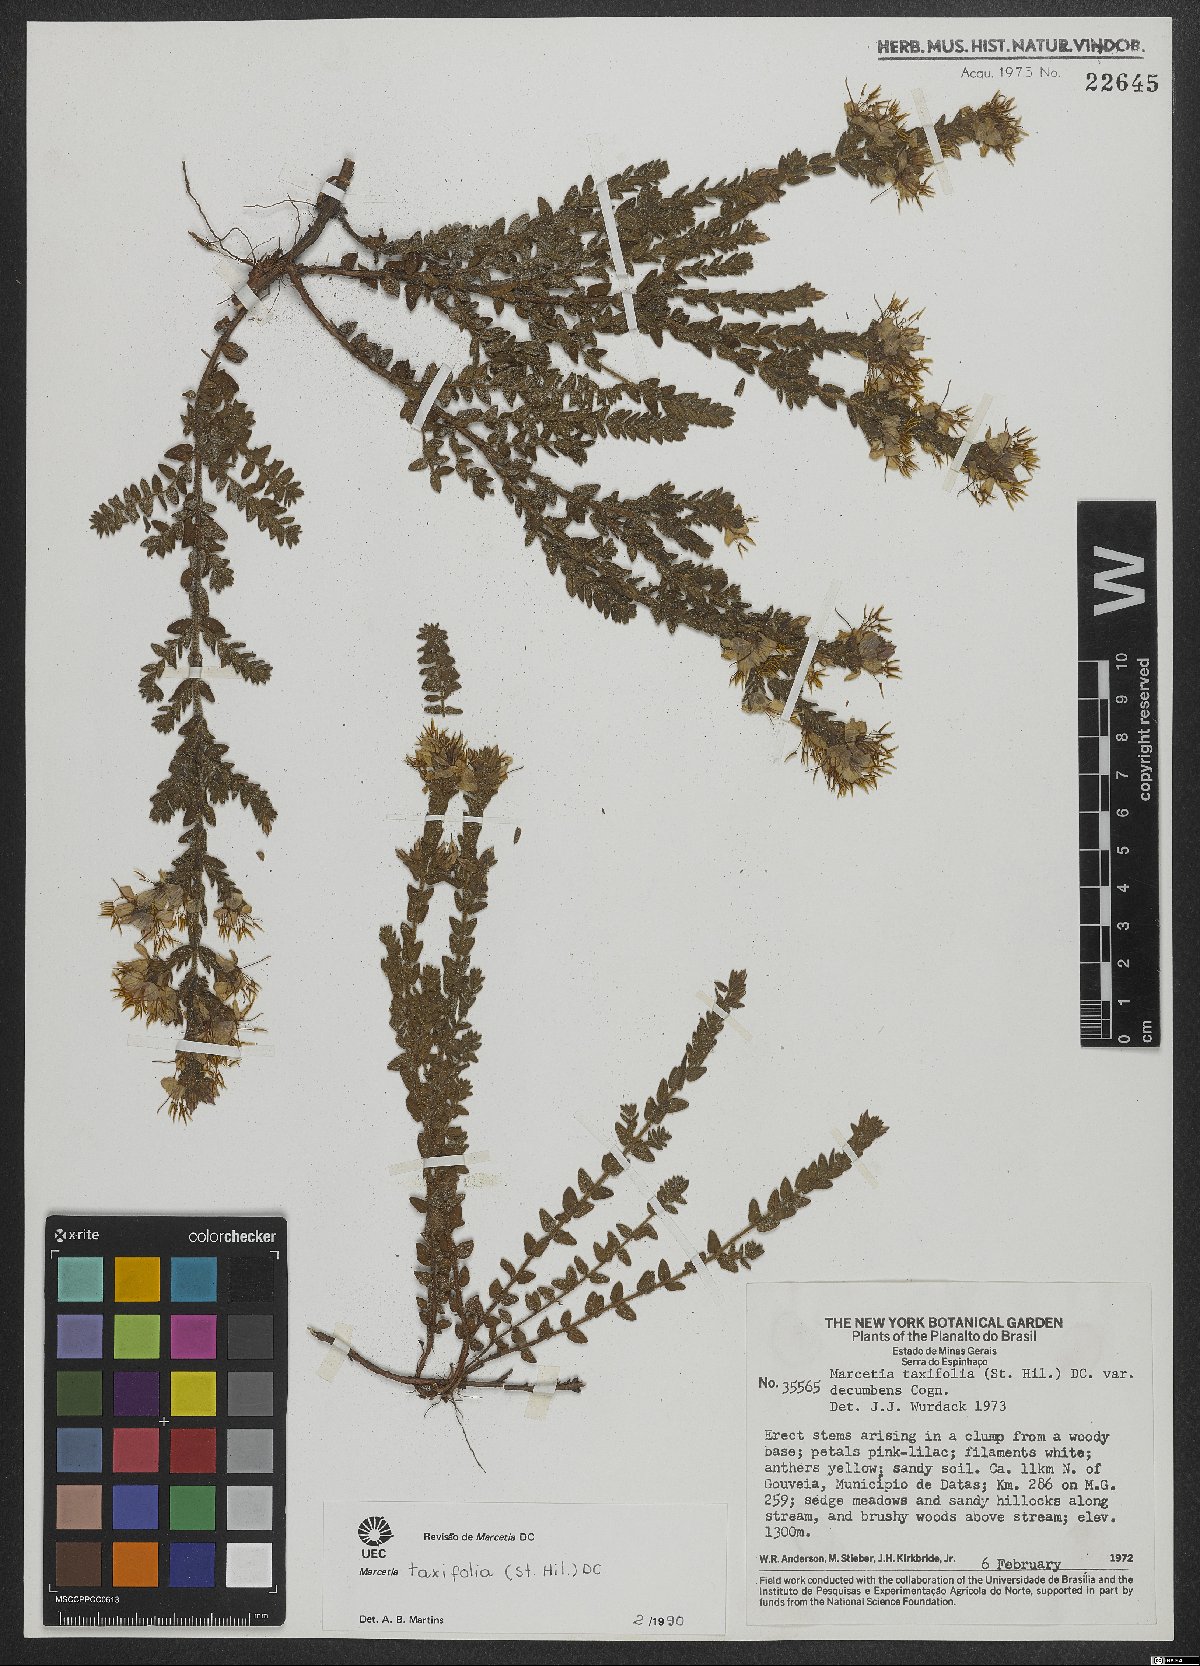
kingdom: Plantae
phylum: Tracheophyta
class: Magnoliopsida
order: Myrtales
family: Melastomataceae
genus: Marcetia
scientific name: Marcetia taxifolia
